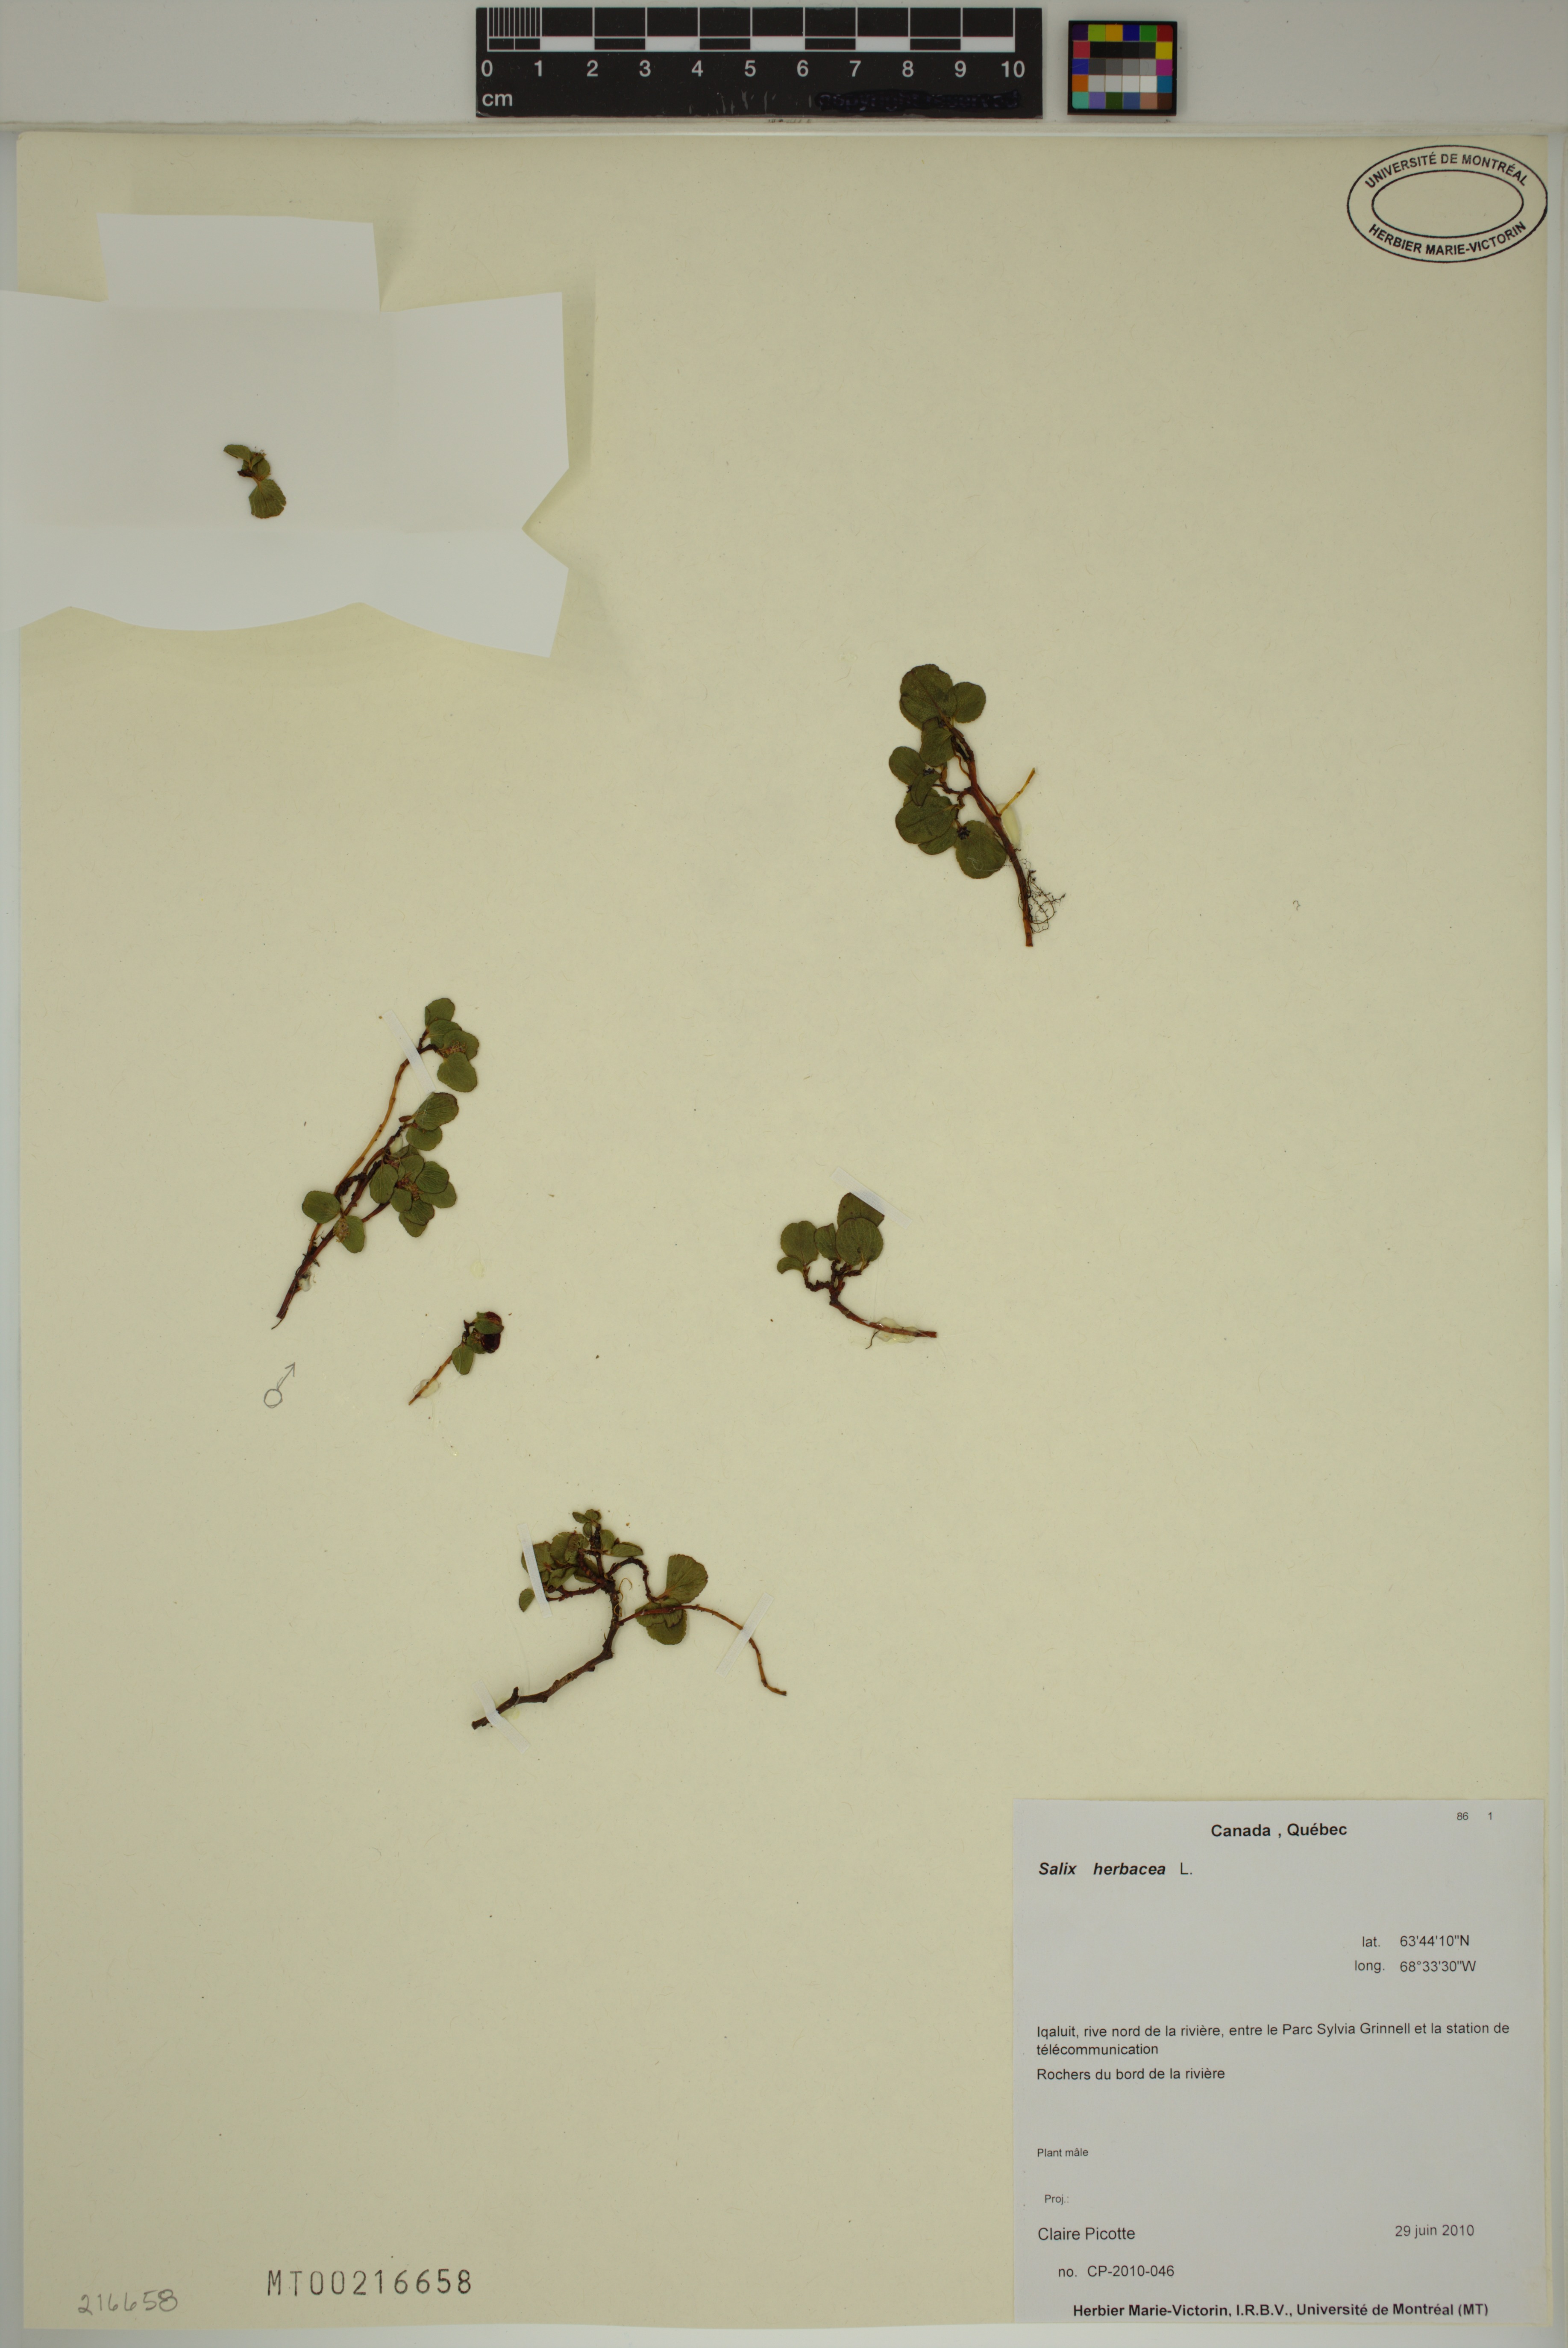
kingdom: Plantae
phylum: Tracheophyta
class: Magnoliopsida
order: Malpighiales
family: Salicaceae
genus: Salix
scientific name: Salix herbacea
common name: Dwarf willow
